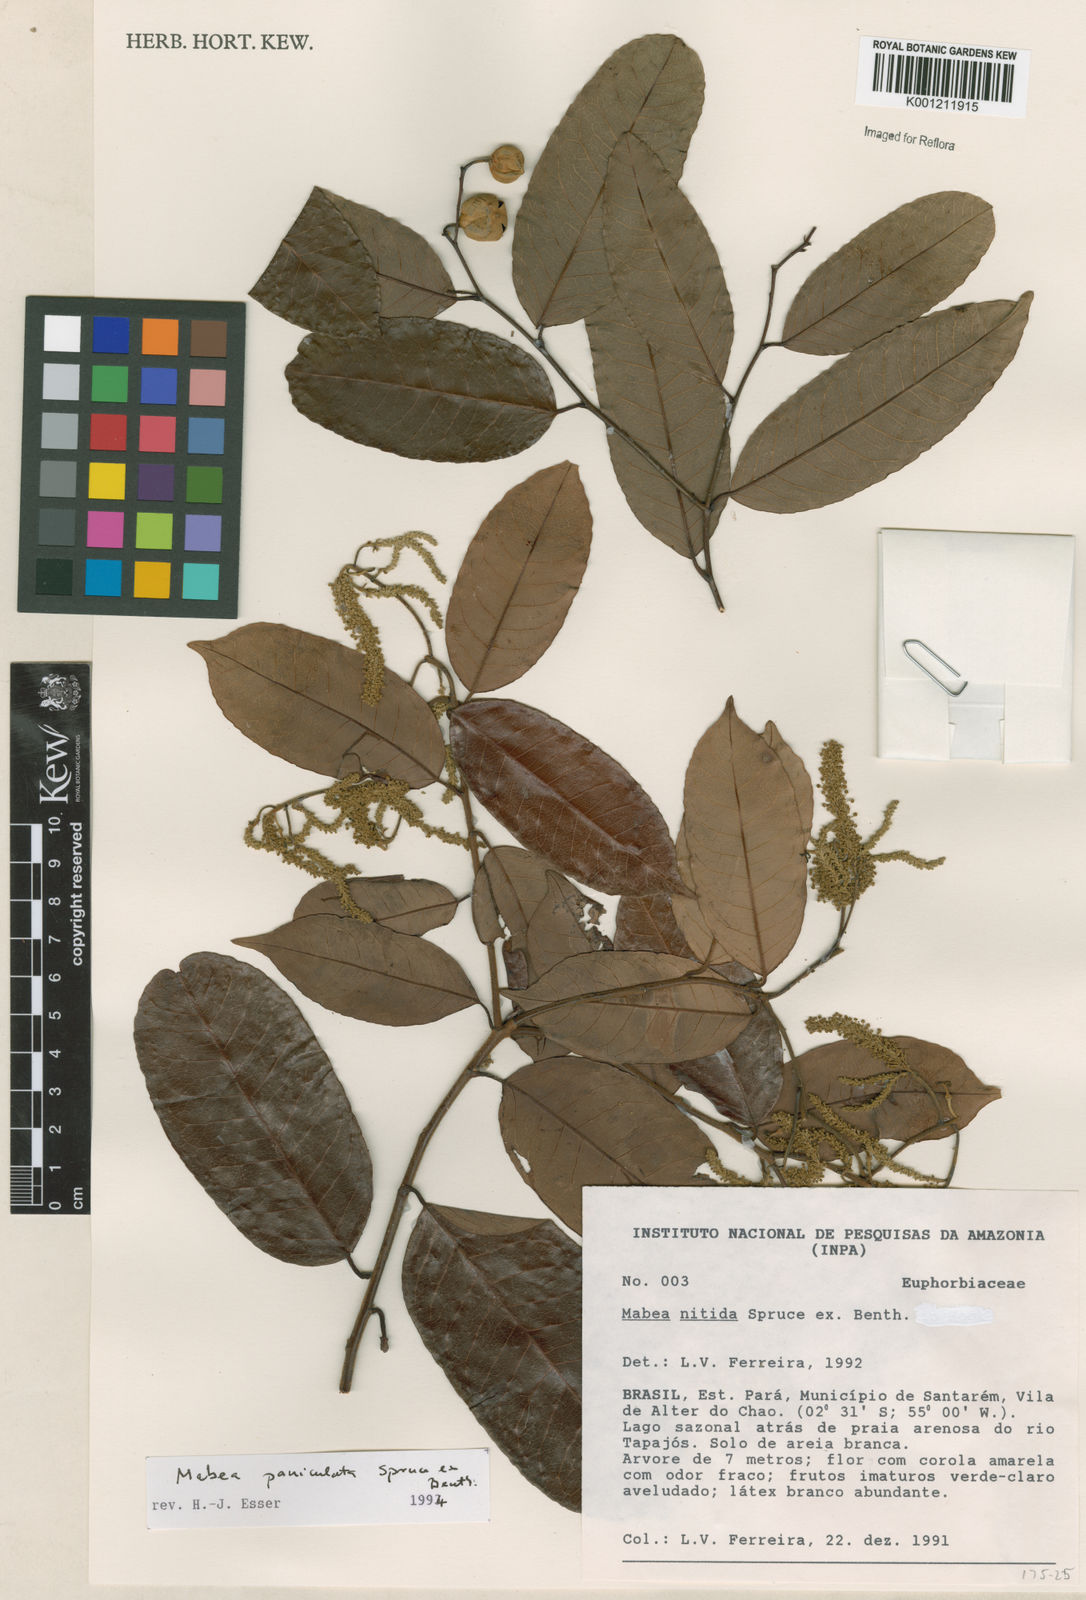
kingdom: Plantae
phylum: Tracheophyta
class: Magnoliopsida
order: Malpighiales
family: Euphorbiaceae
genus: Mabea
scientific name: Mabea paniculata
